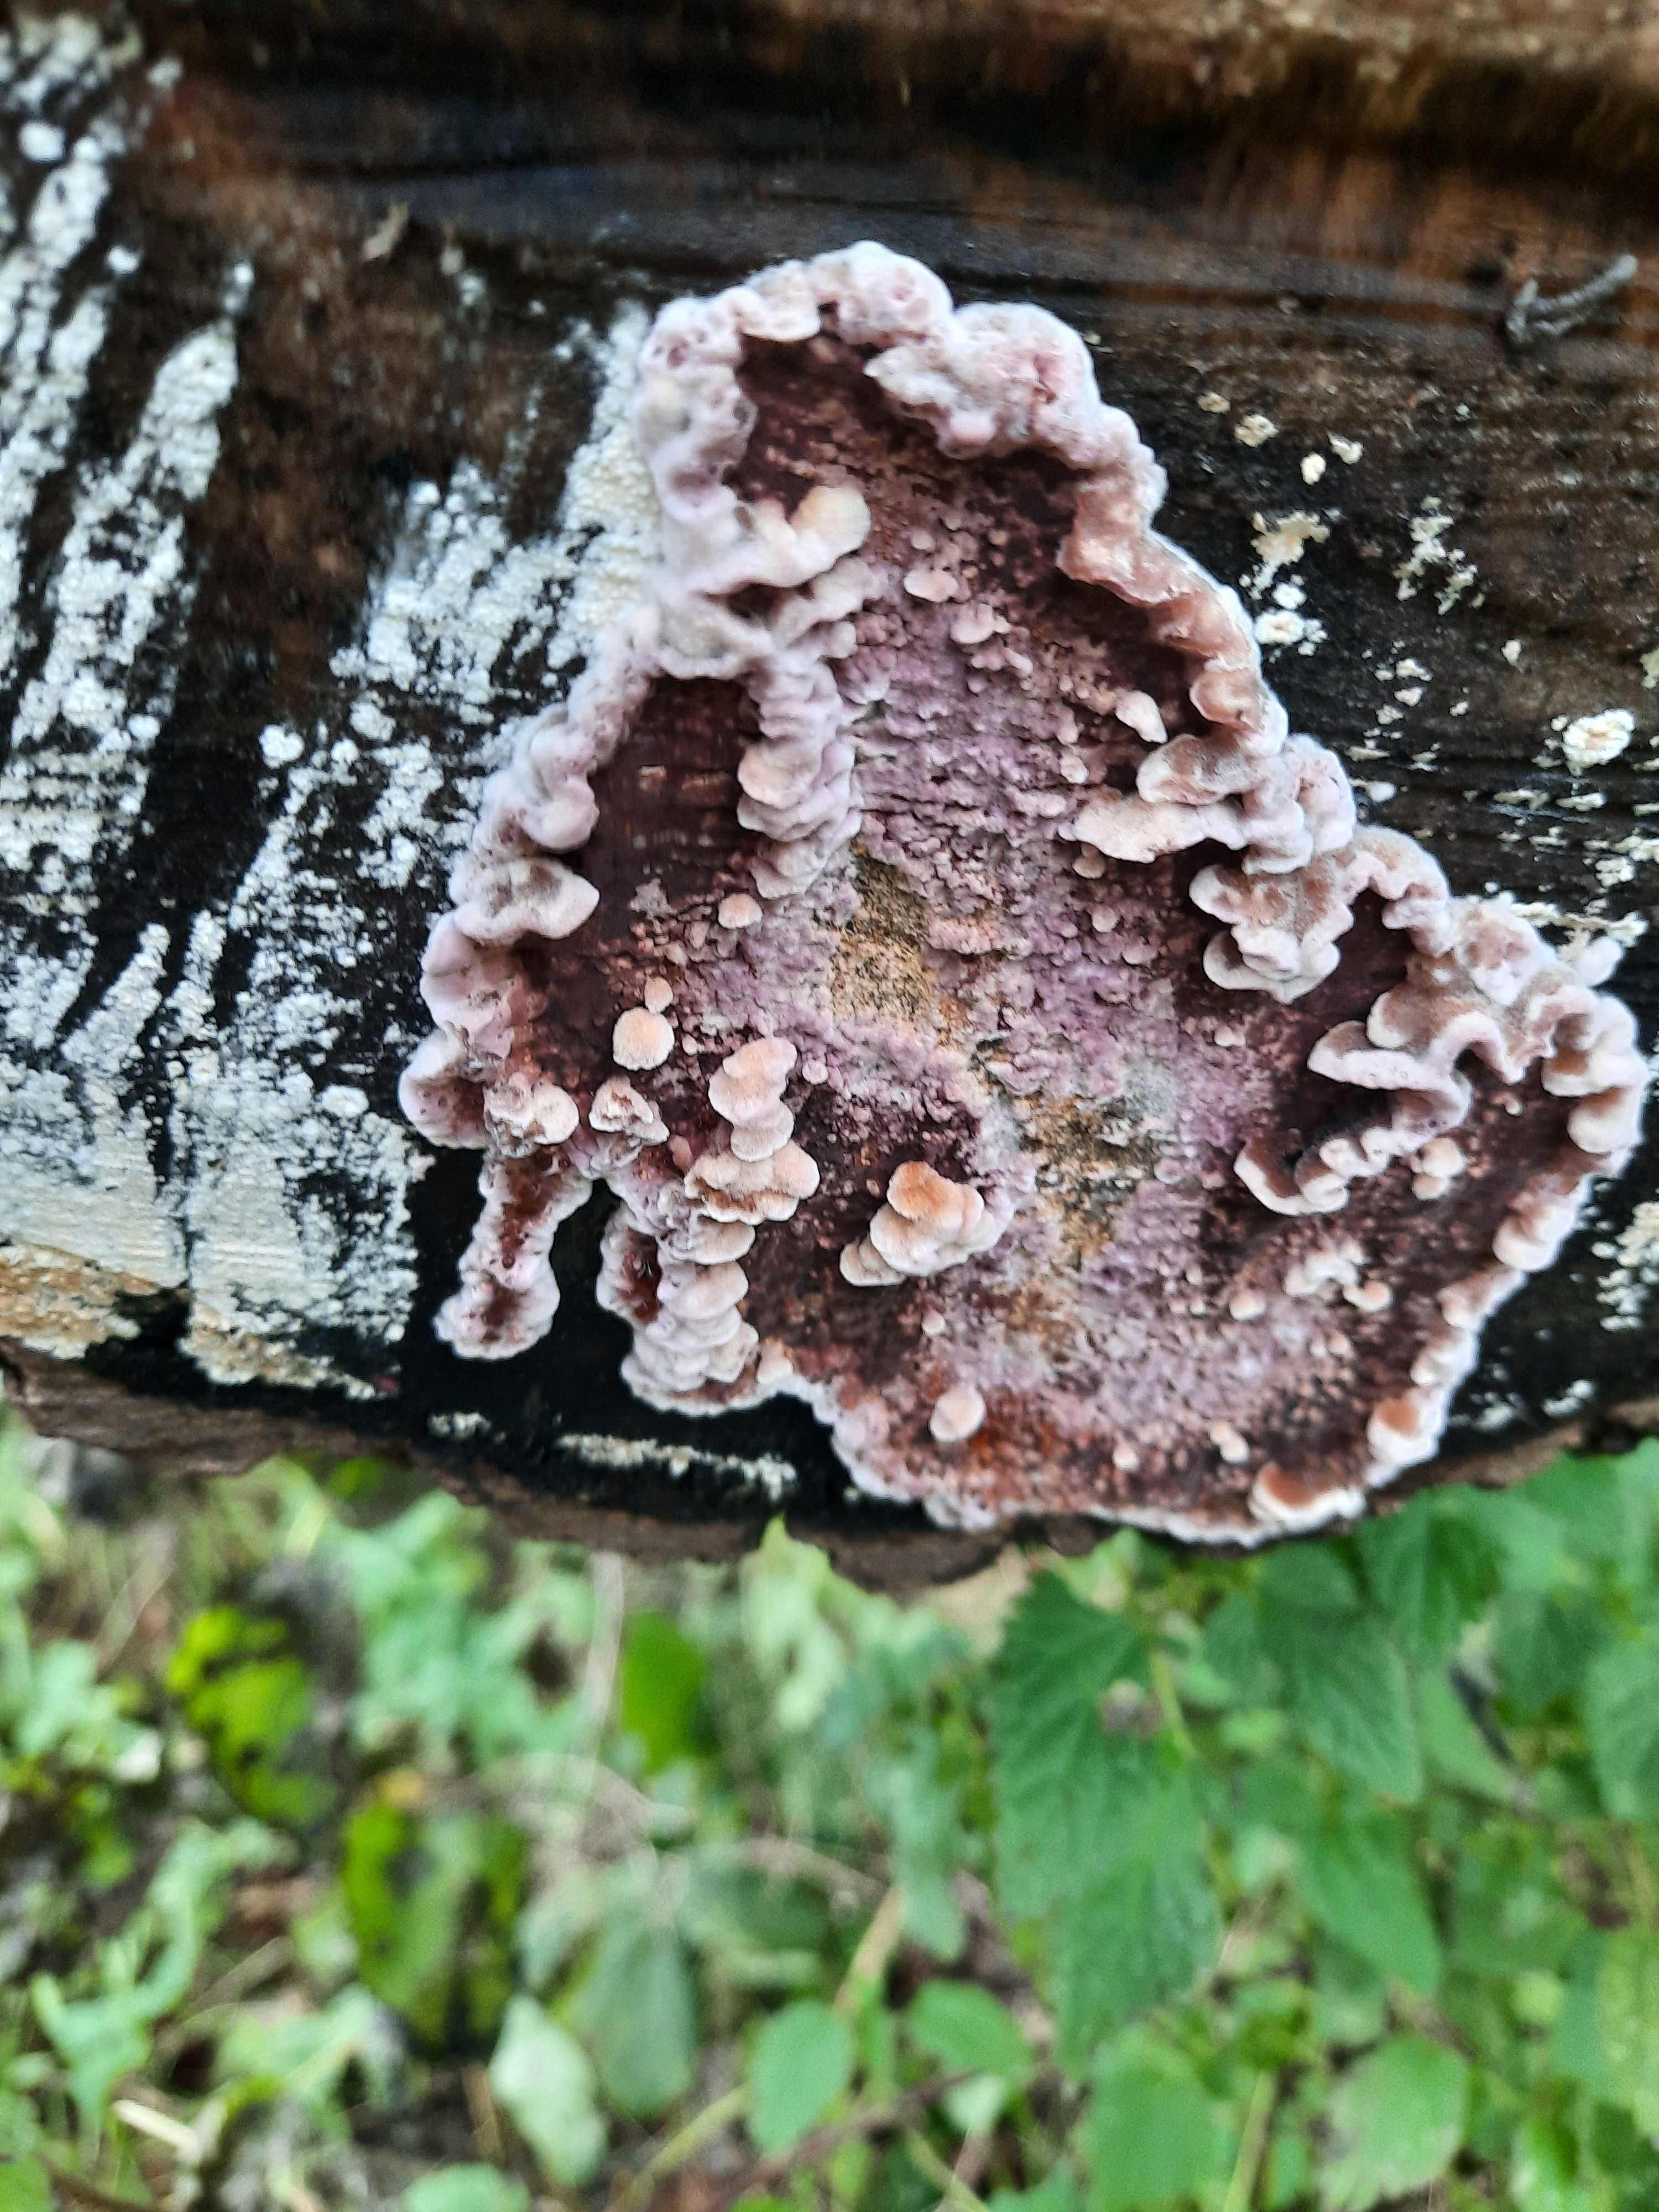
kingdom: Fungi
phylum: Basidiomycota
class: Agaricomycetes
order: Agaricales
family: Cyphellaceae
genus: Chondrostereum
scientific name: Chondrostereum purpureum
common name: purpurlædersvamp
